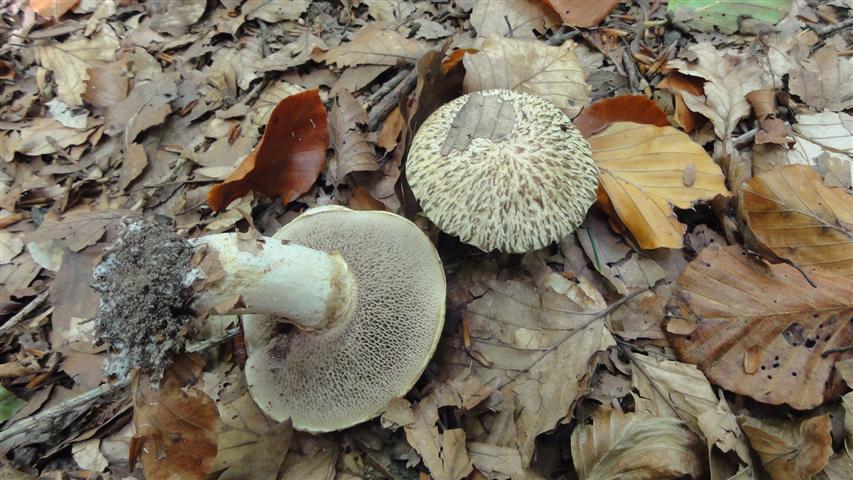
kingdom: Fungi
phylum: Basidiomycota
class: Agaricomycetes
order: Boletales
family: Suillaceae
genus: Suillus
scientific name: Suillus viscidus
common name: olivengrå slimrørhat
